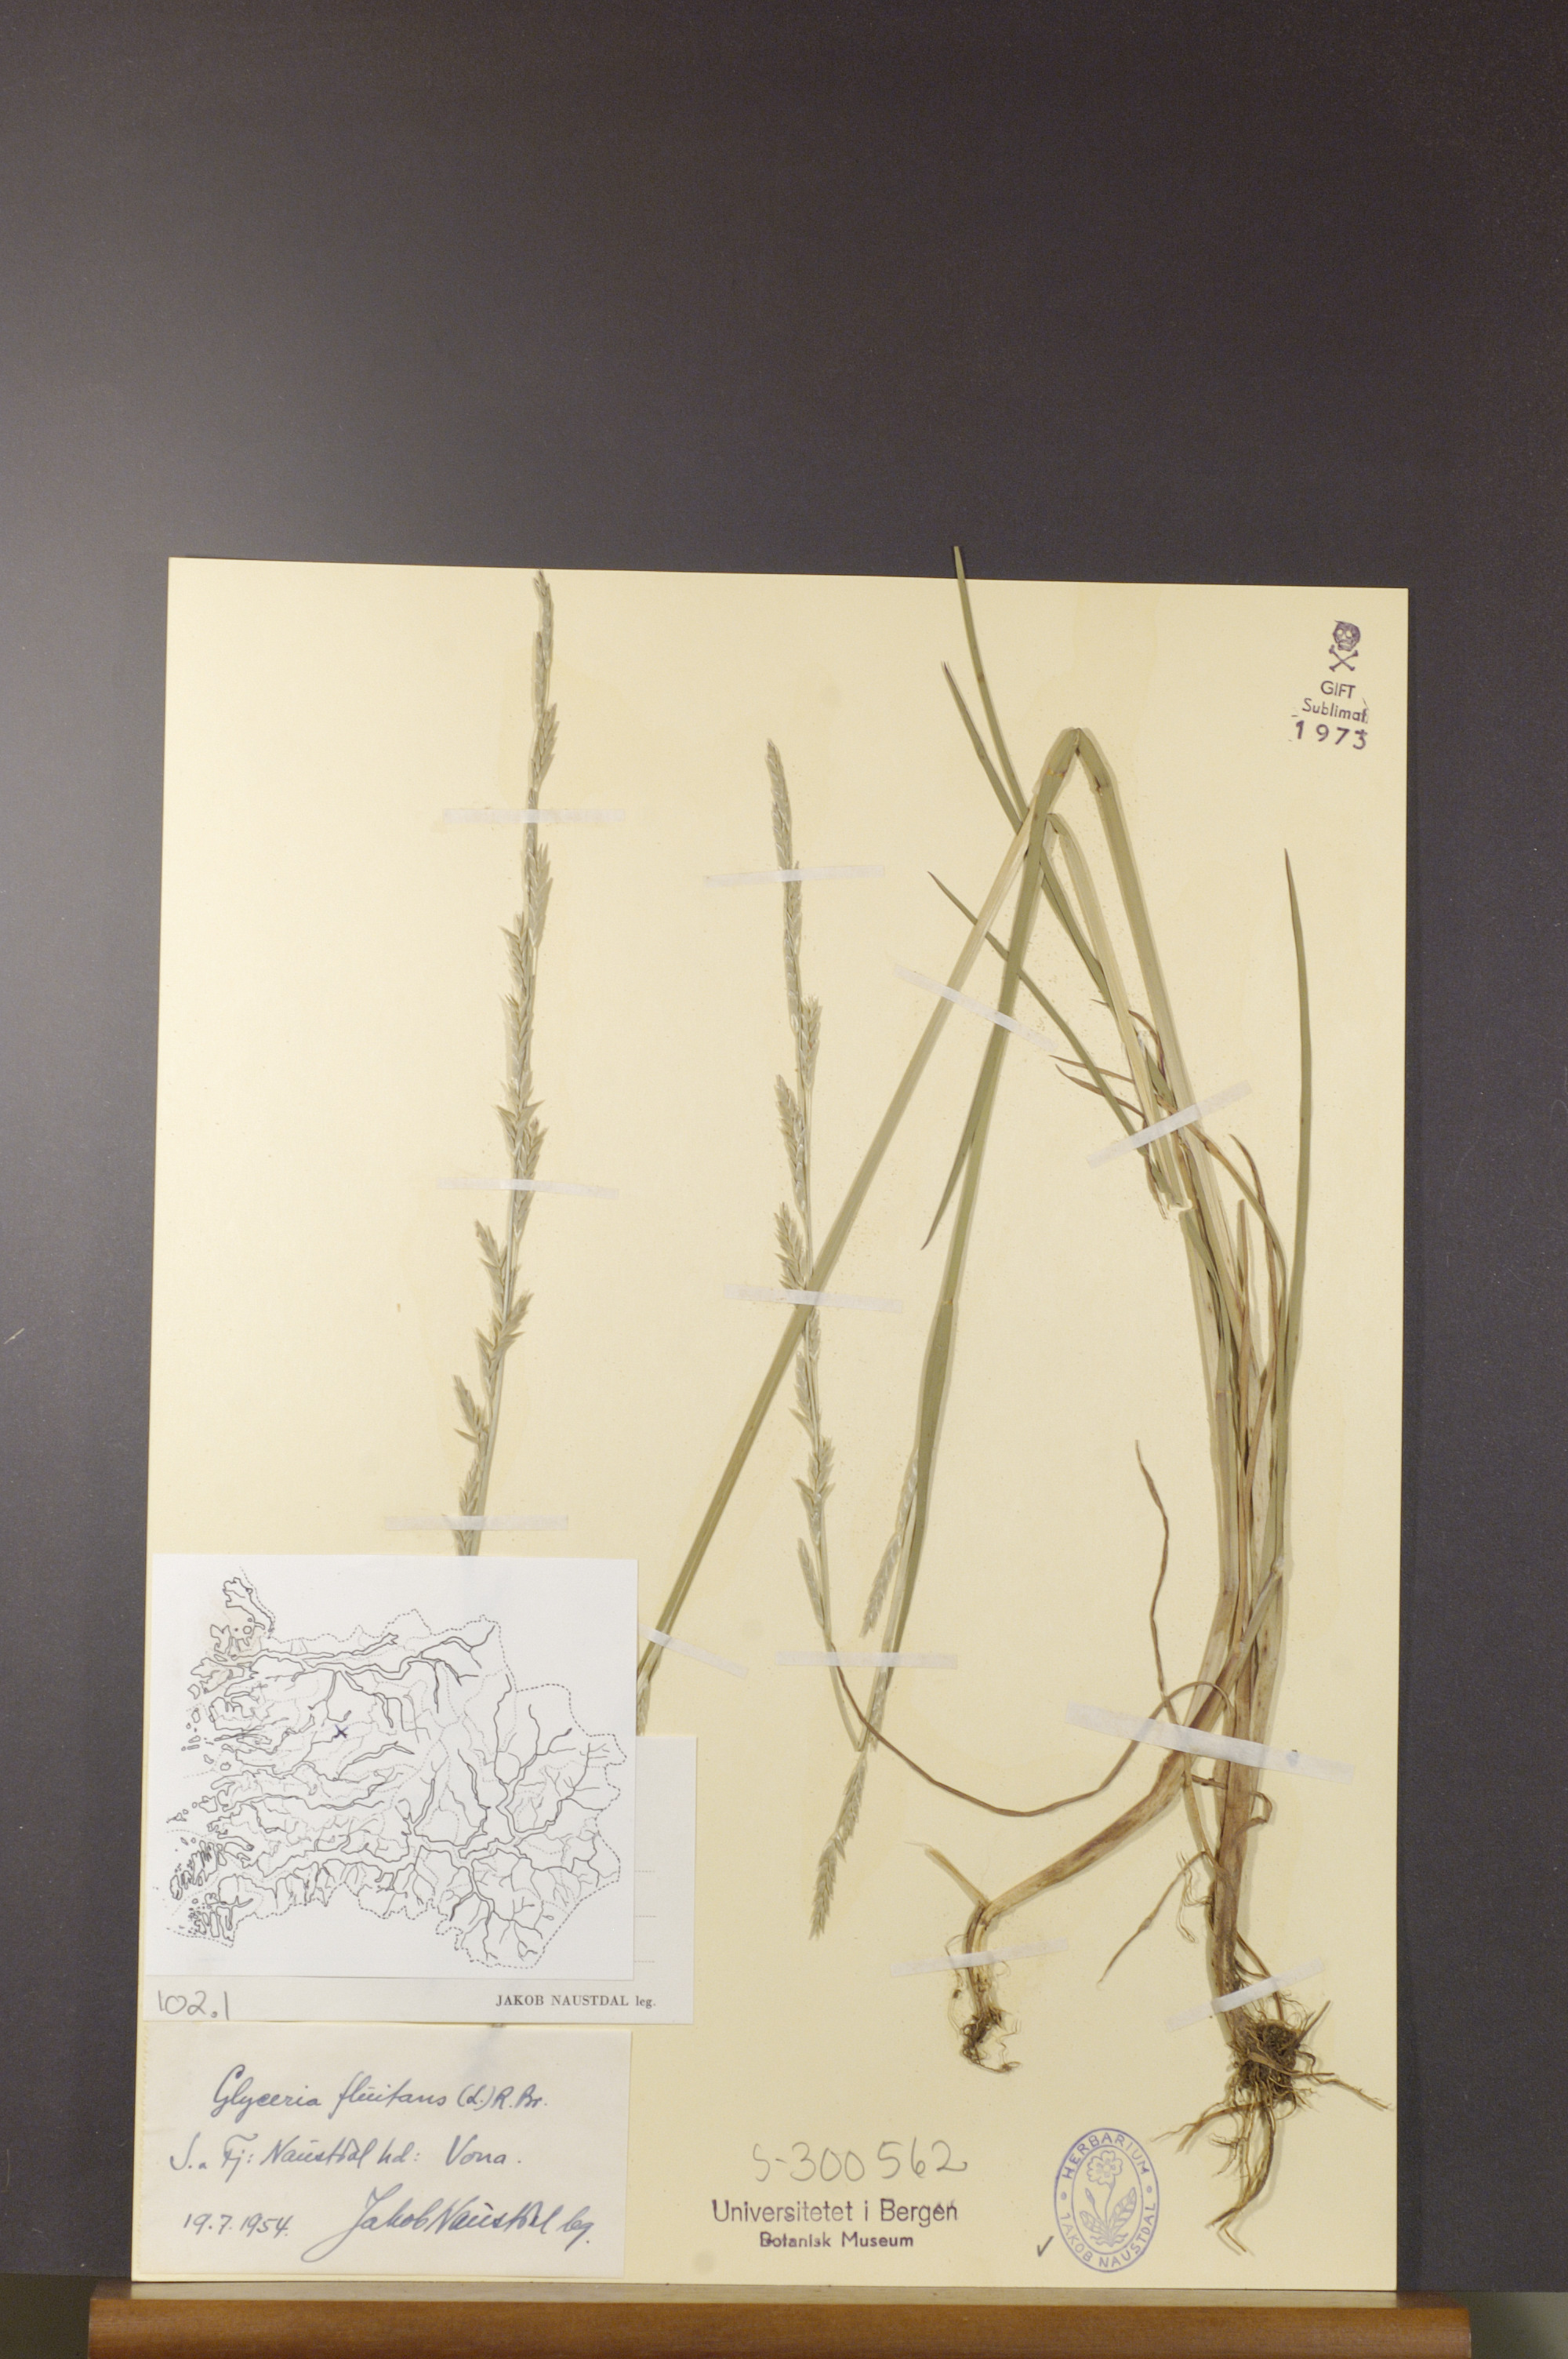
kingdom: Plantae
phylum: Tracheophyta
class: Liliopsida
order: Poales
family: Poaceae
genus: Glyceria
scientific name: Glyceria fluitans
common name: Floating sweet-grass
